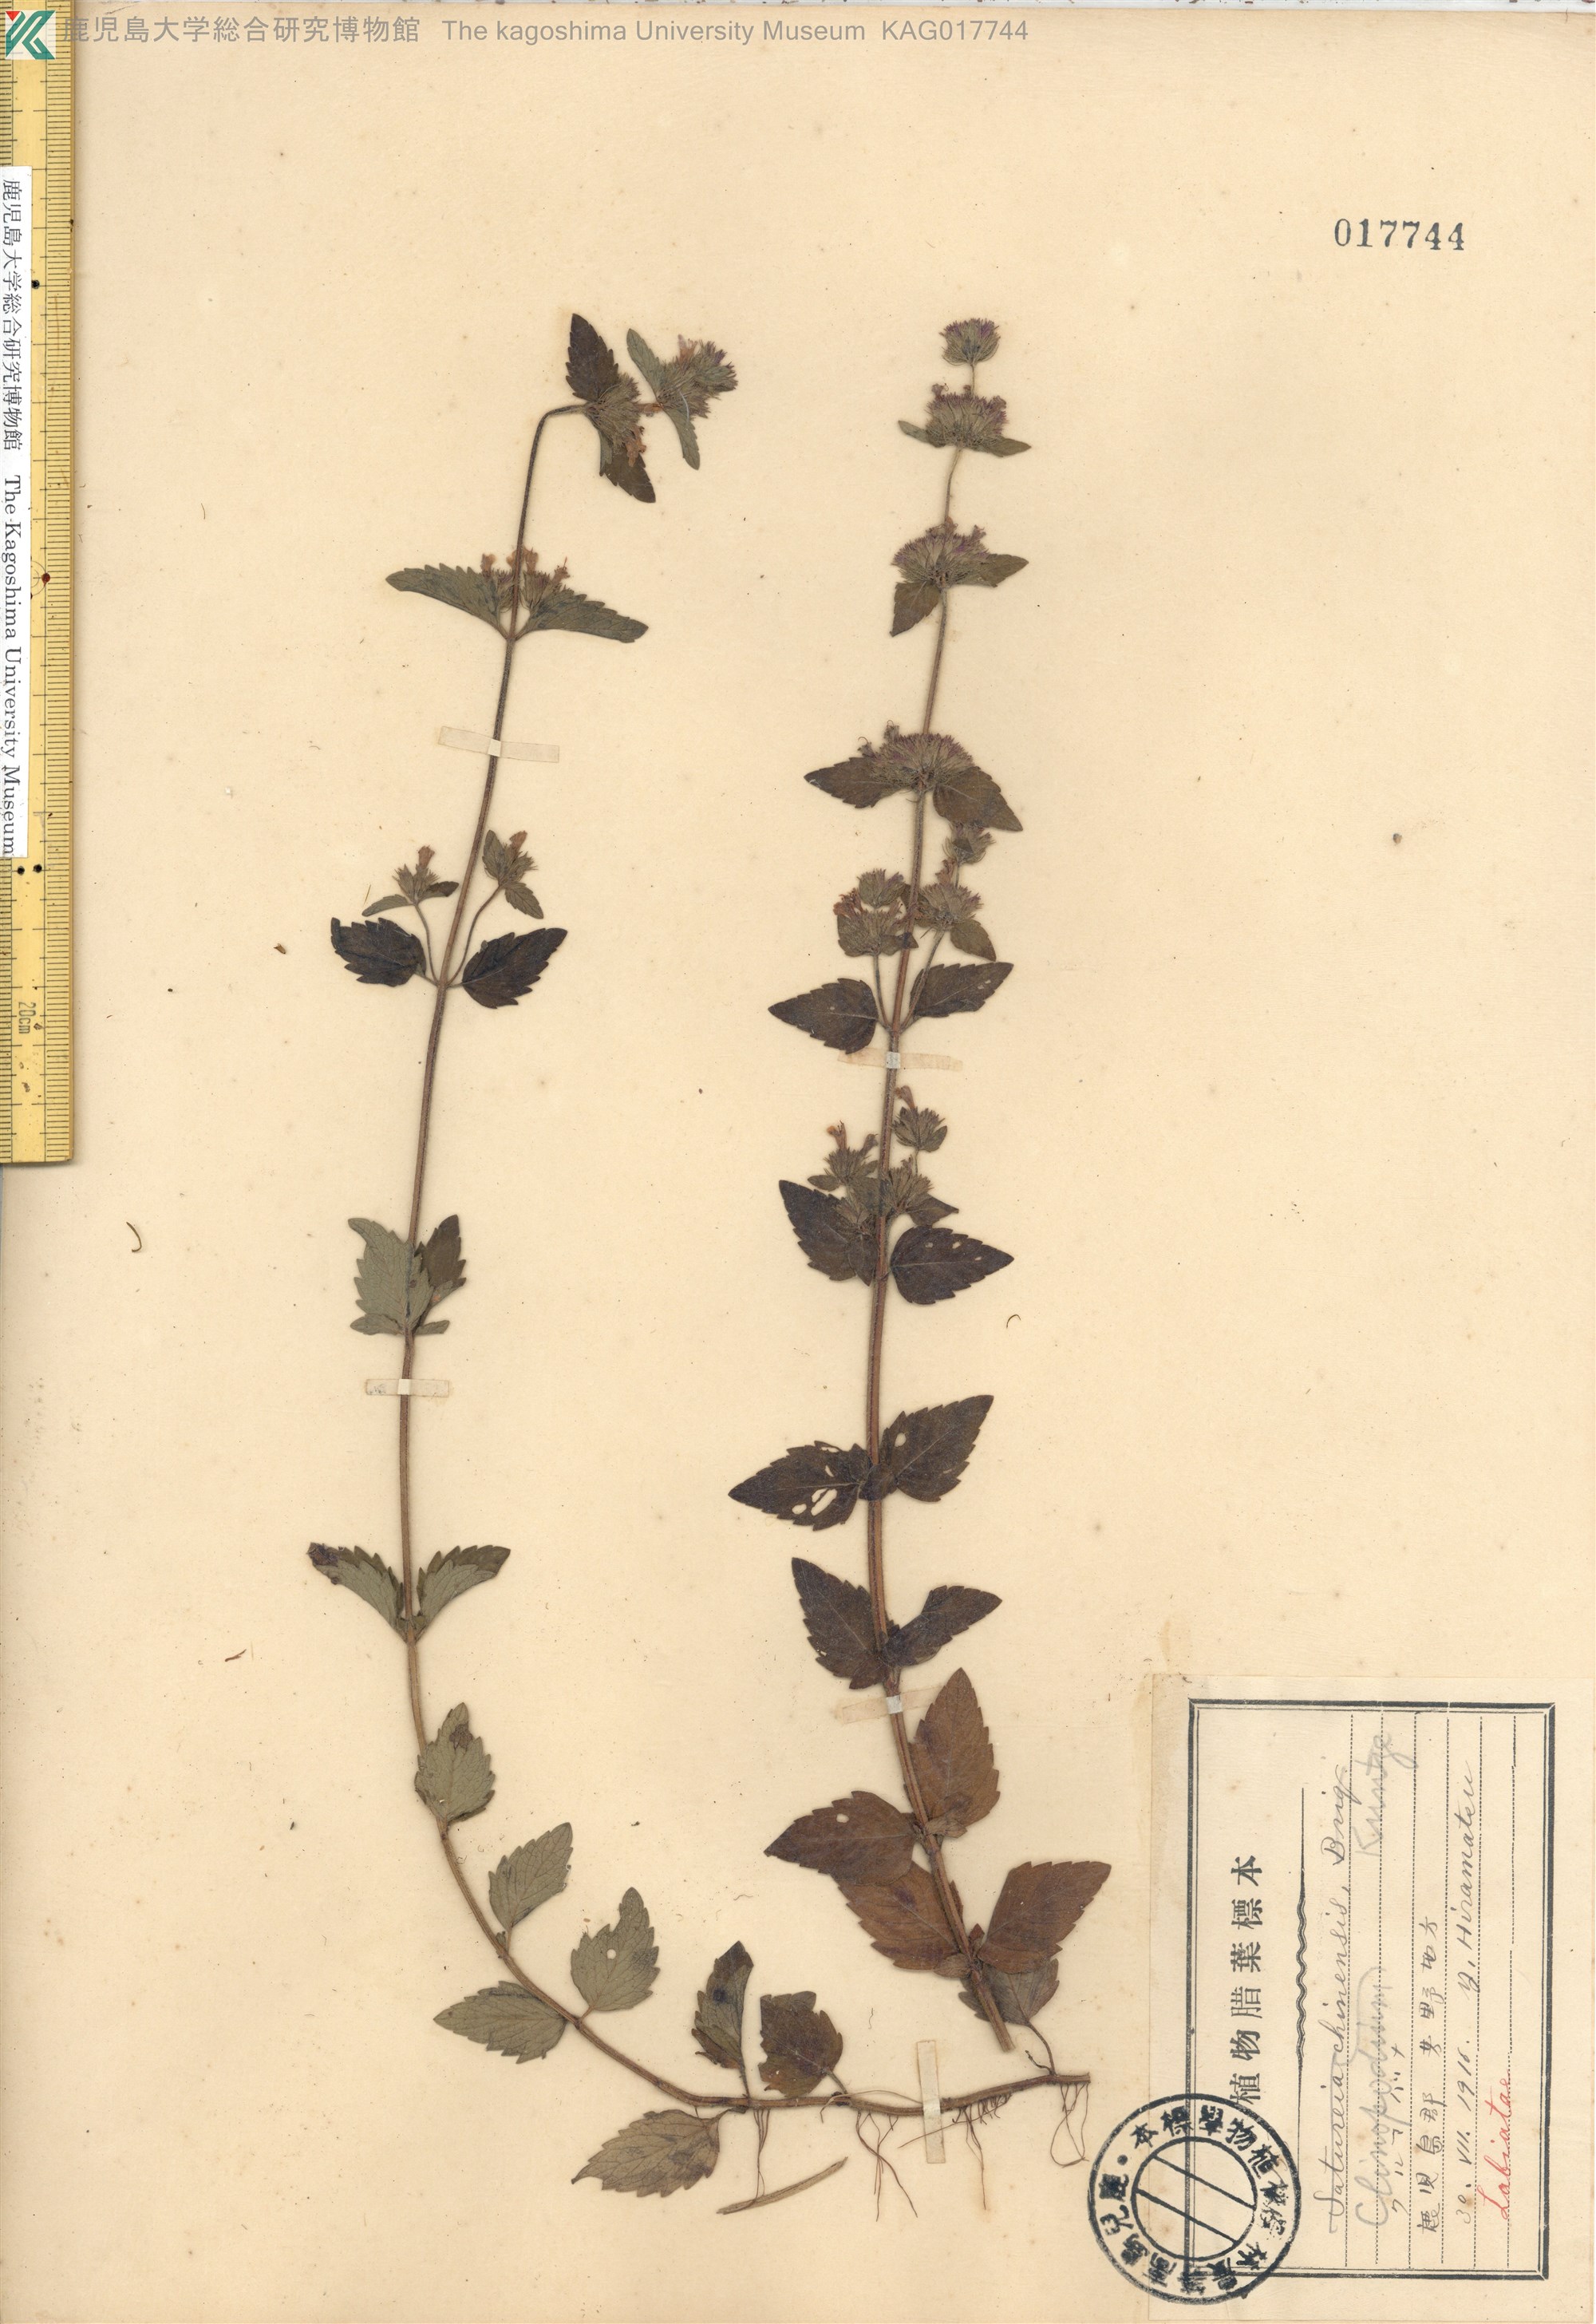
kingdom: Plantae
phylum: Tracheophyta
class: Magnoliopsida
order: Lamiales
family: Lamiaceae
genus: Clinopodium
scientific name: Clinopodium chinense
